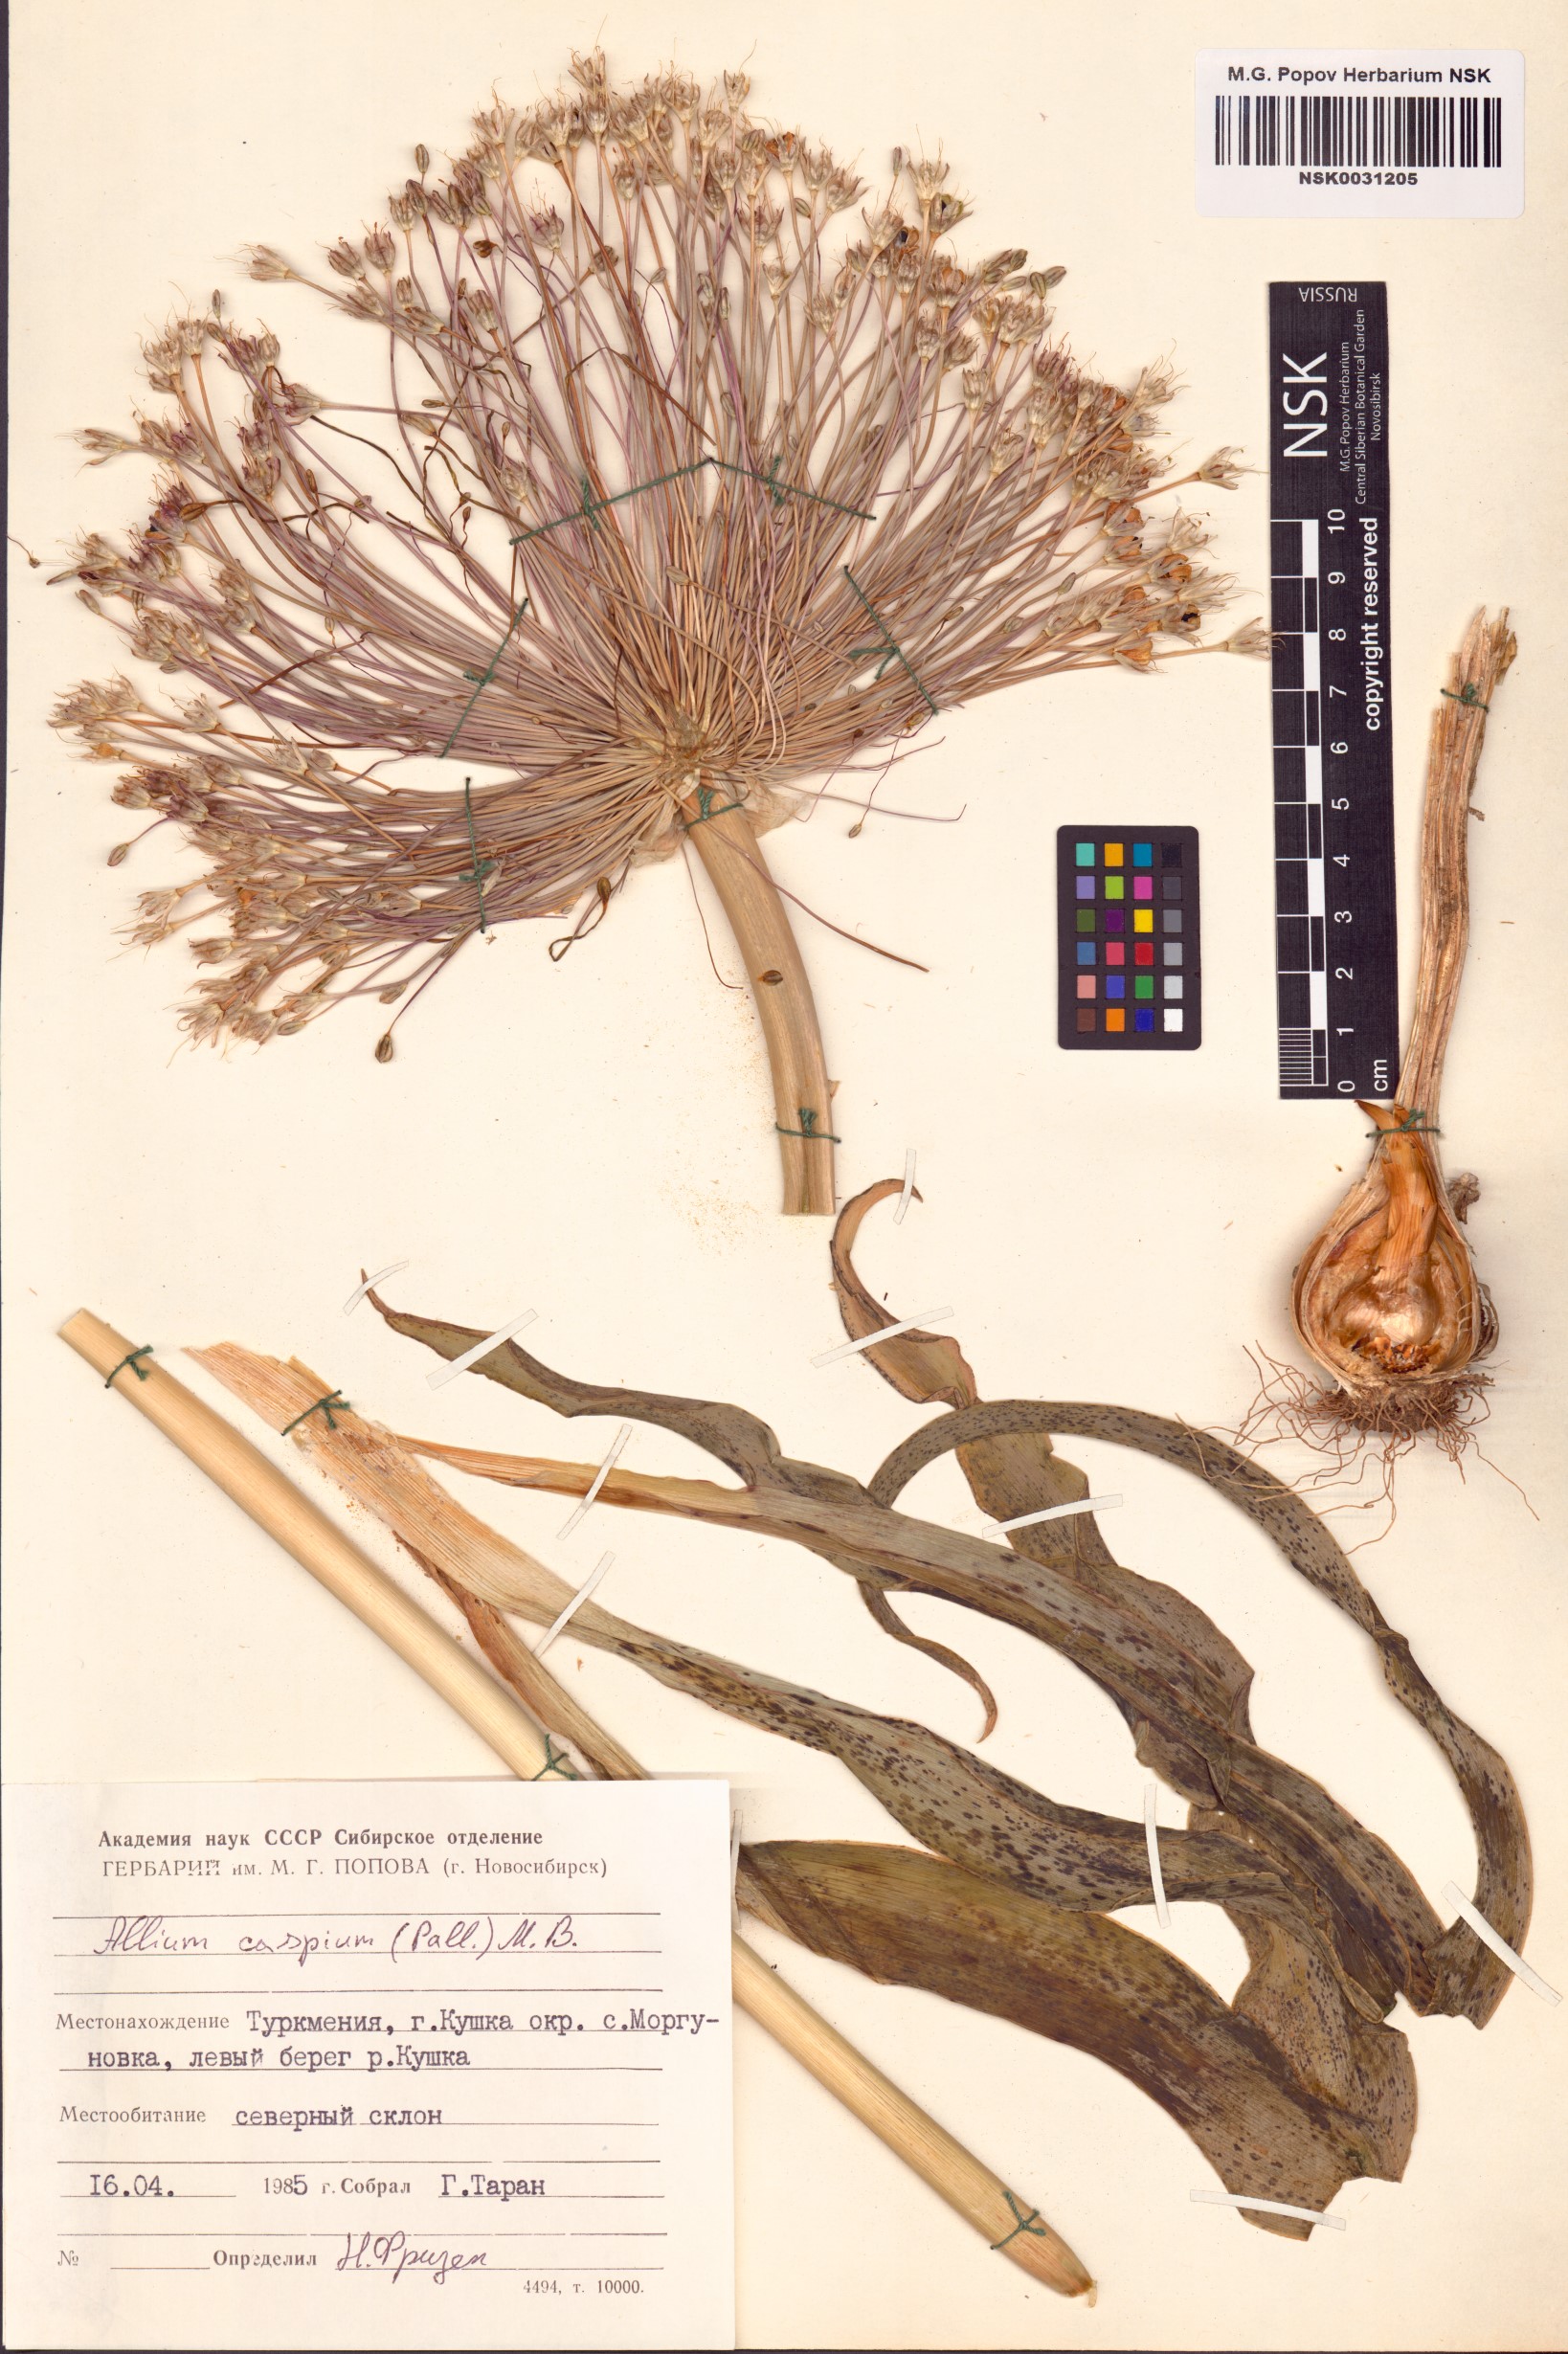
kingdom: Plantae
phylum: Tracheophyta
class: Liliopsida
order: Asparagales
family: Amaryllidaceae
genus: Allium
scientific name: Allium caspium
